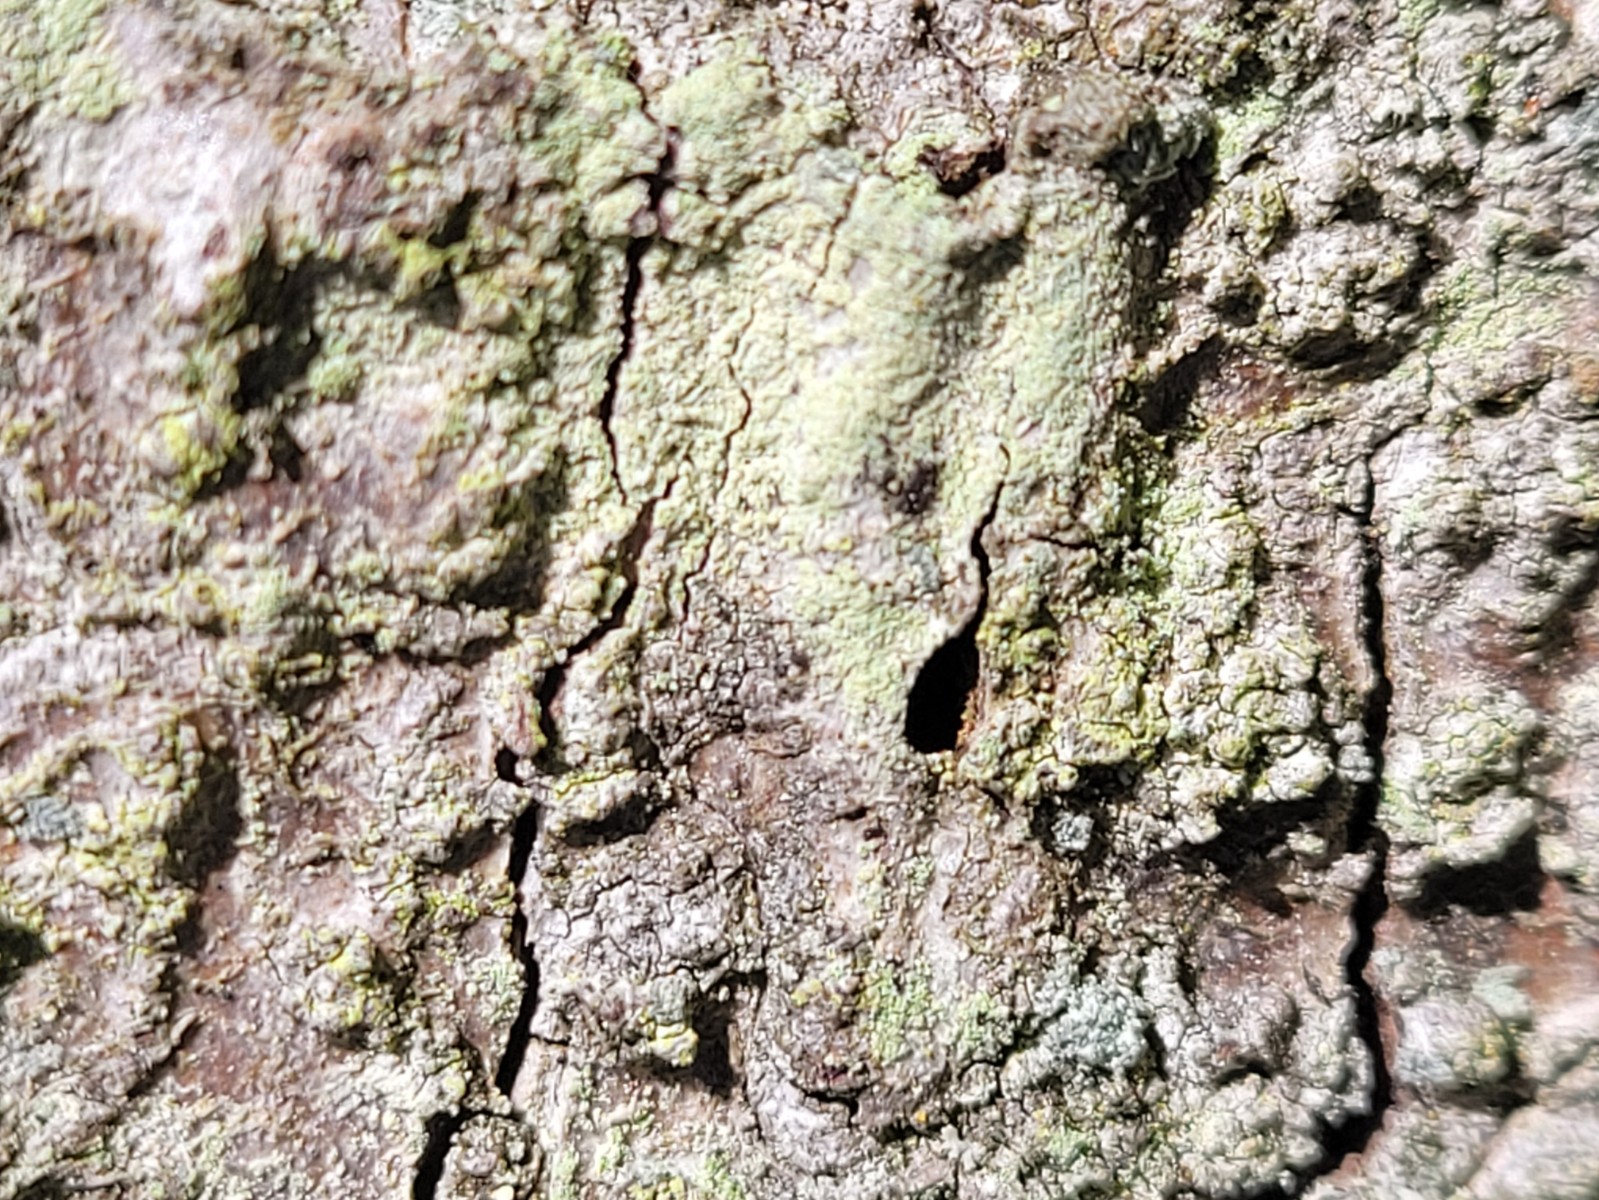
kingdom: Fungi
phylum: Ascomycota
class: Lecanoromycetes
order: Lecanorales
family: Lecanoraceae
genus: Lecanora
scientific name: Lecanora expallens
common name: bleggul kantskivelav
